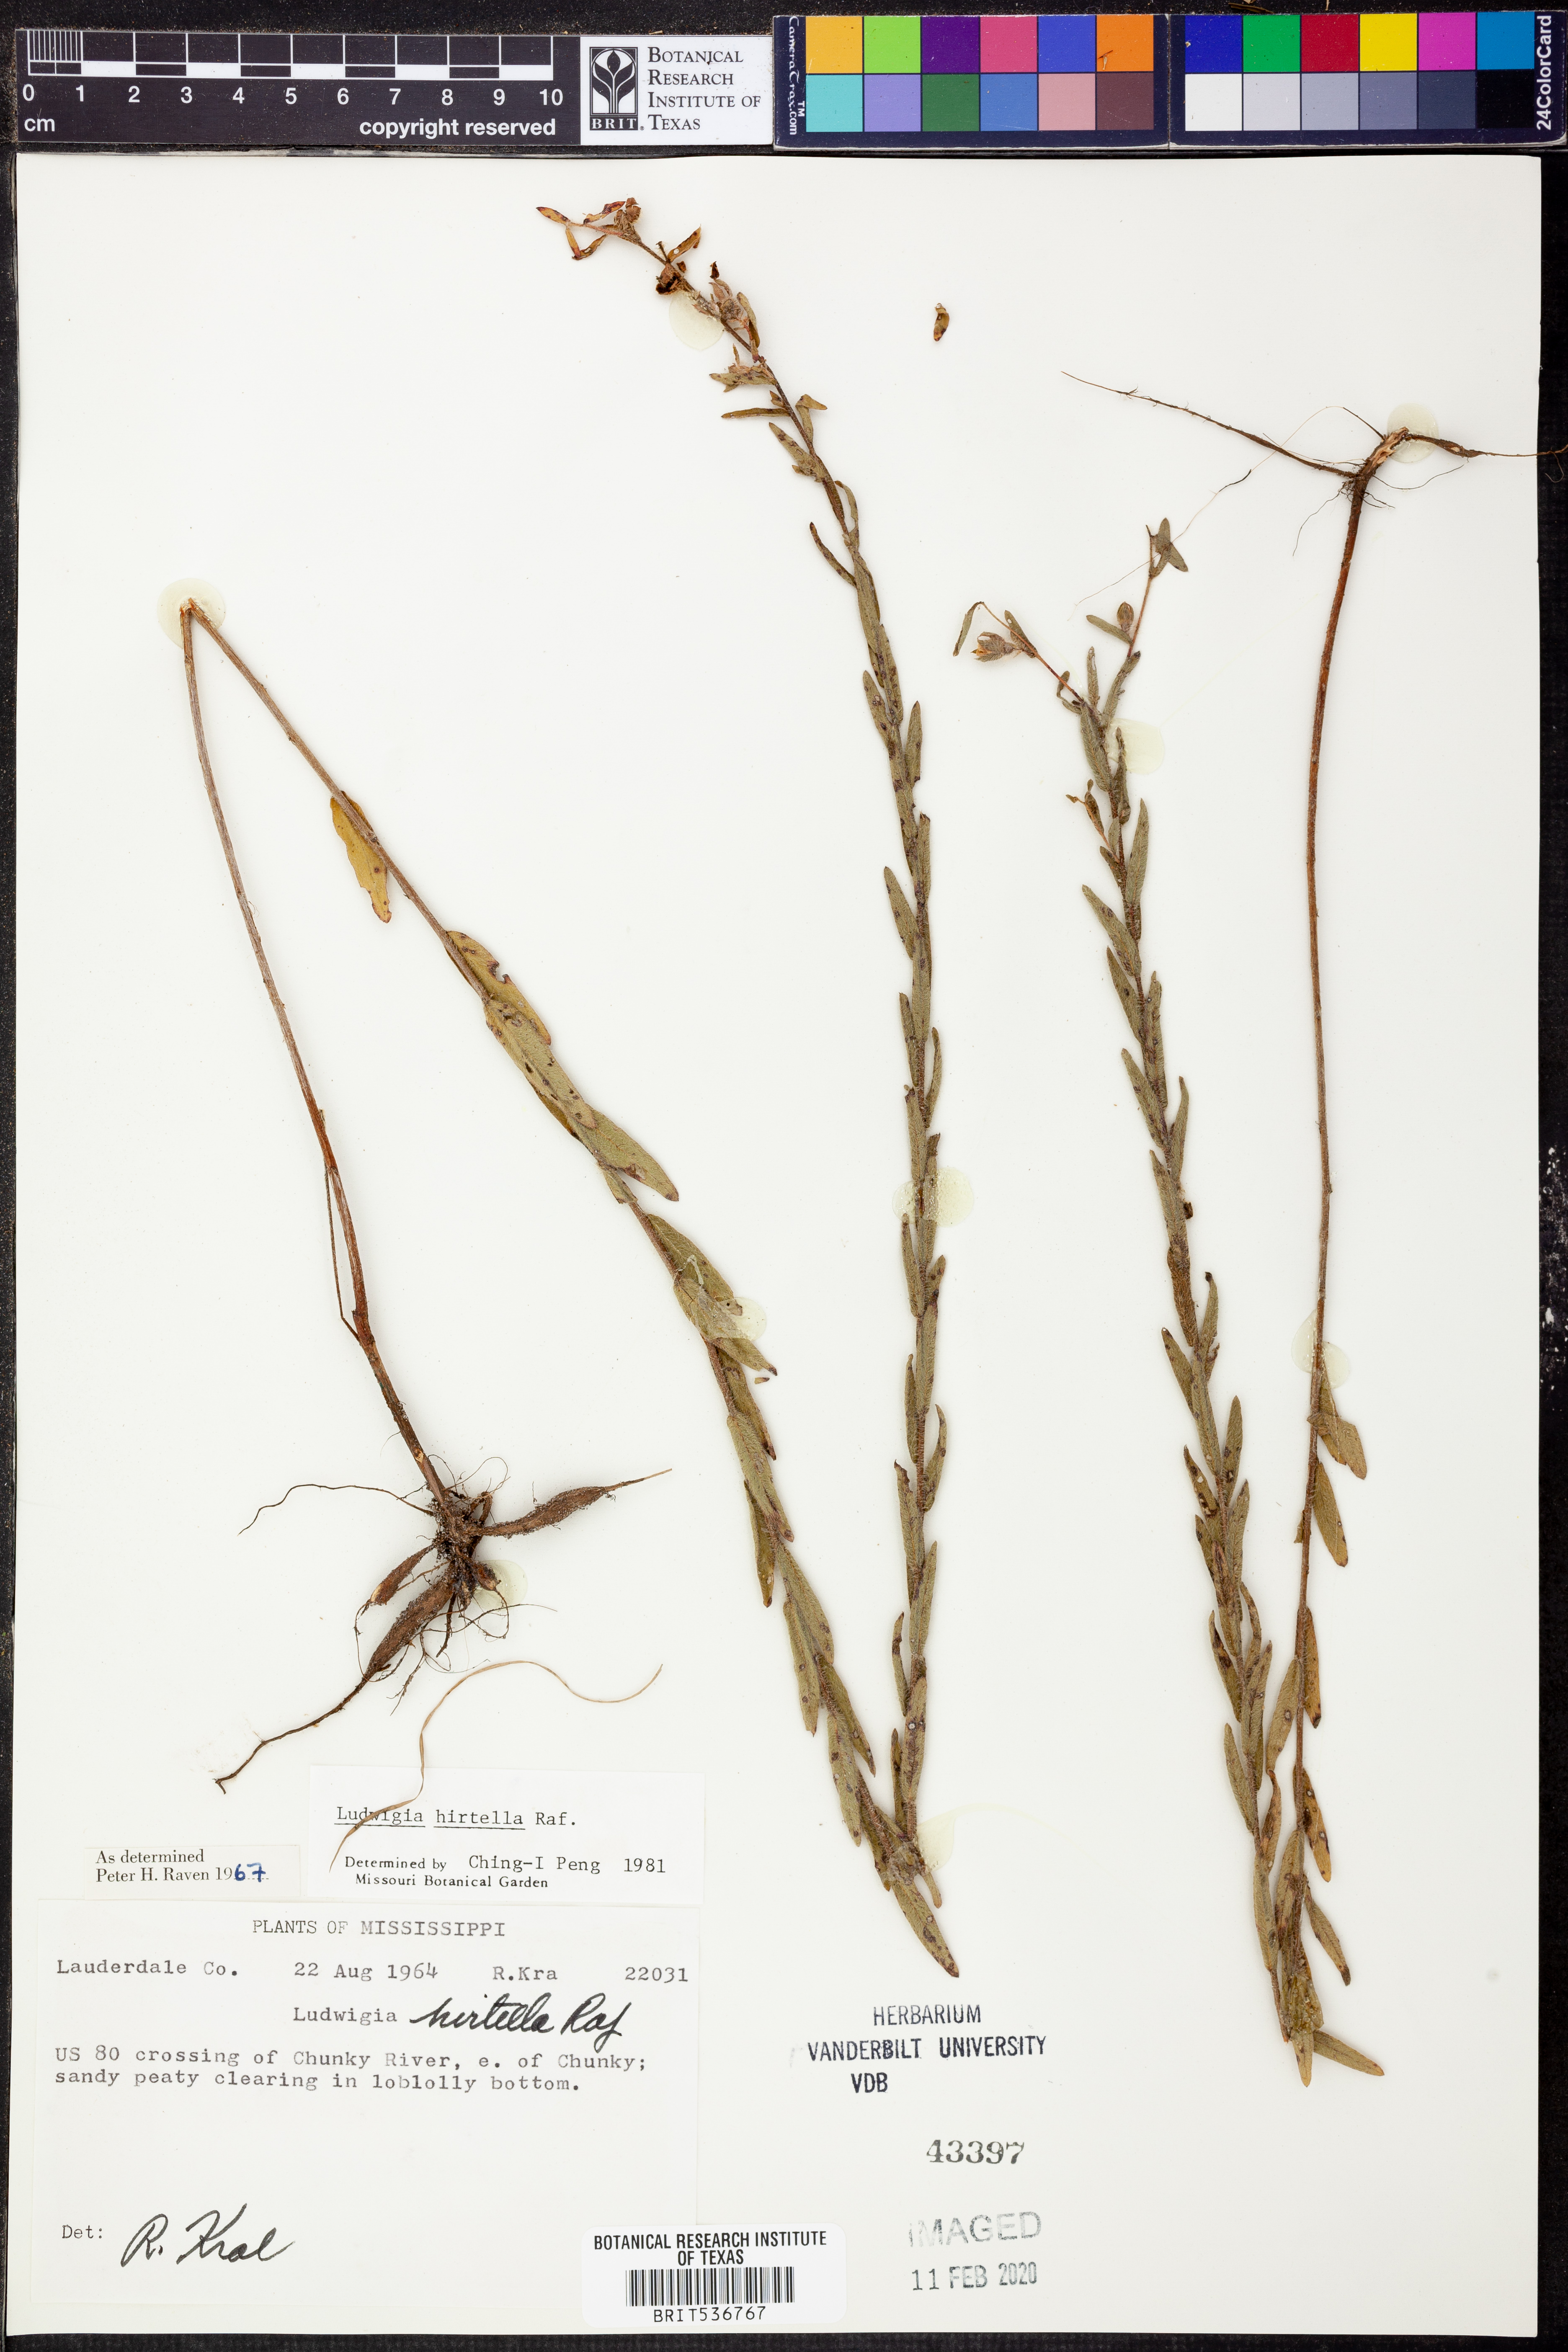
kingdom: Plantae
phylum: Tracheophyta
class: Magnoliopsida
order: Myrtales
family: Onagraceae
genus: Ludwigia
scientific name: Ludwigia hirtella
